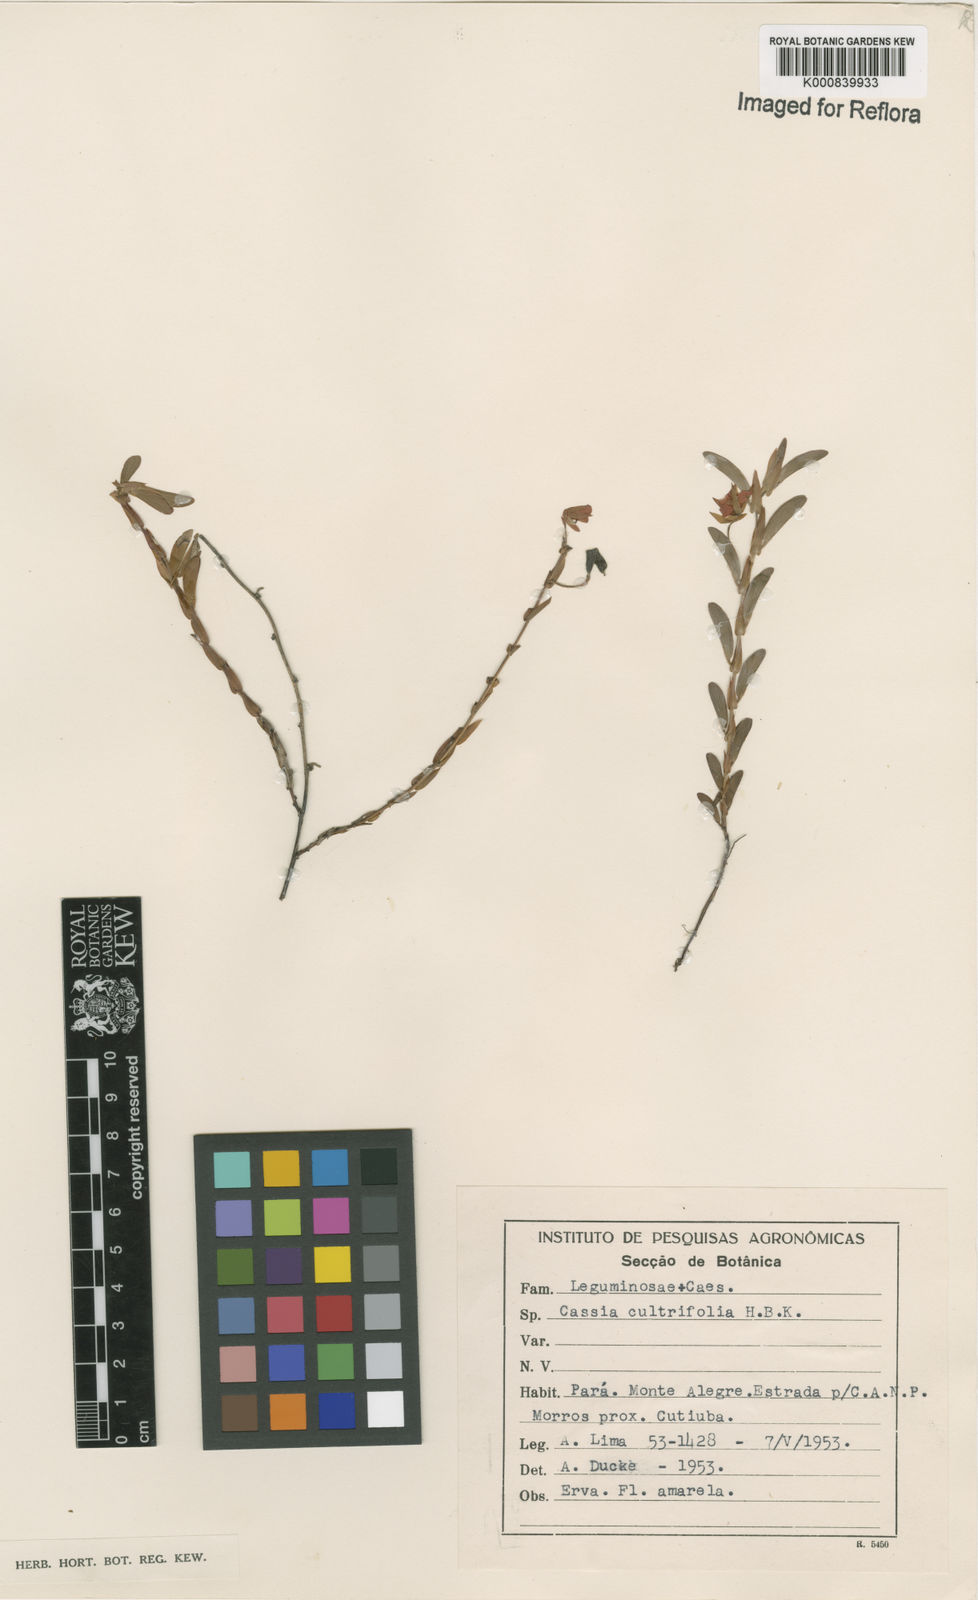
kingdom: Plantae
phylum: Tracheophyta
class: Magnoliopsida
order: Fabales
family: Fabaceae
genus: Chamaecrista
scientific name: Chamaecrista diphylla
